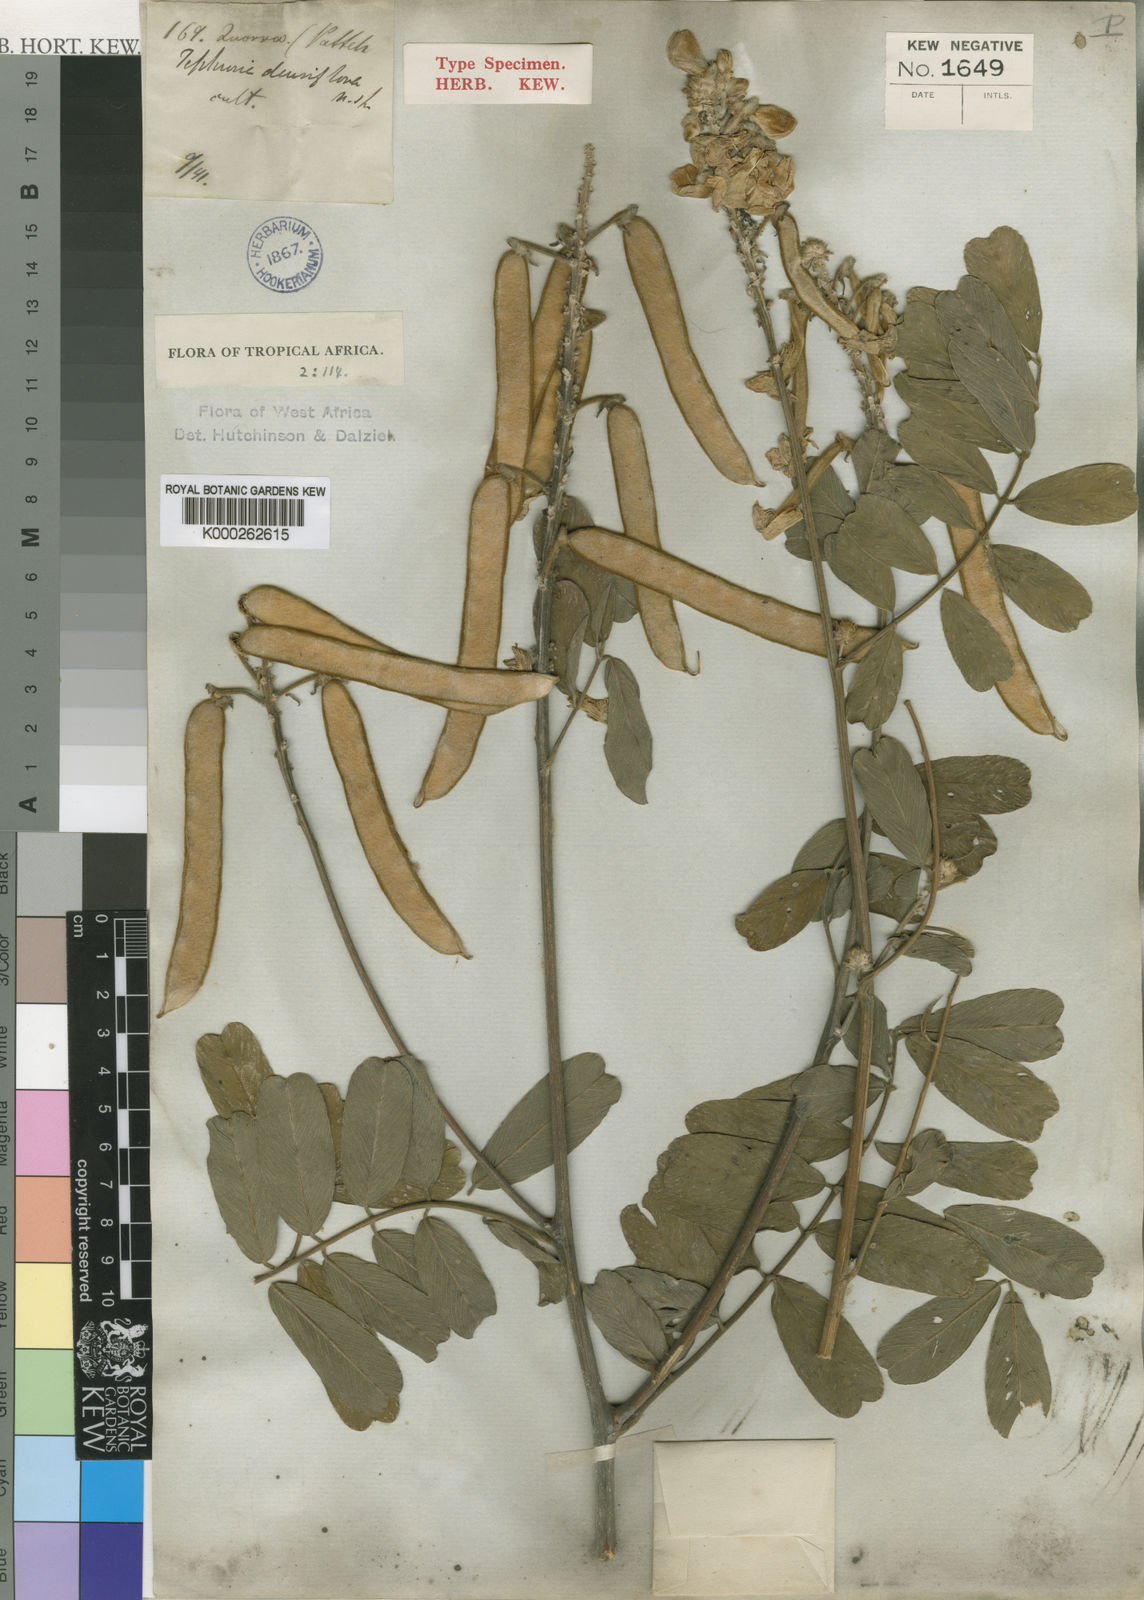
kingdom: Plantae
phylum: Tracheophyta
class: Magnoliopsida
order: Fabales
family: Fabaceae
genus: Tephrosia
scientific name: Tephrosia densiflora
